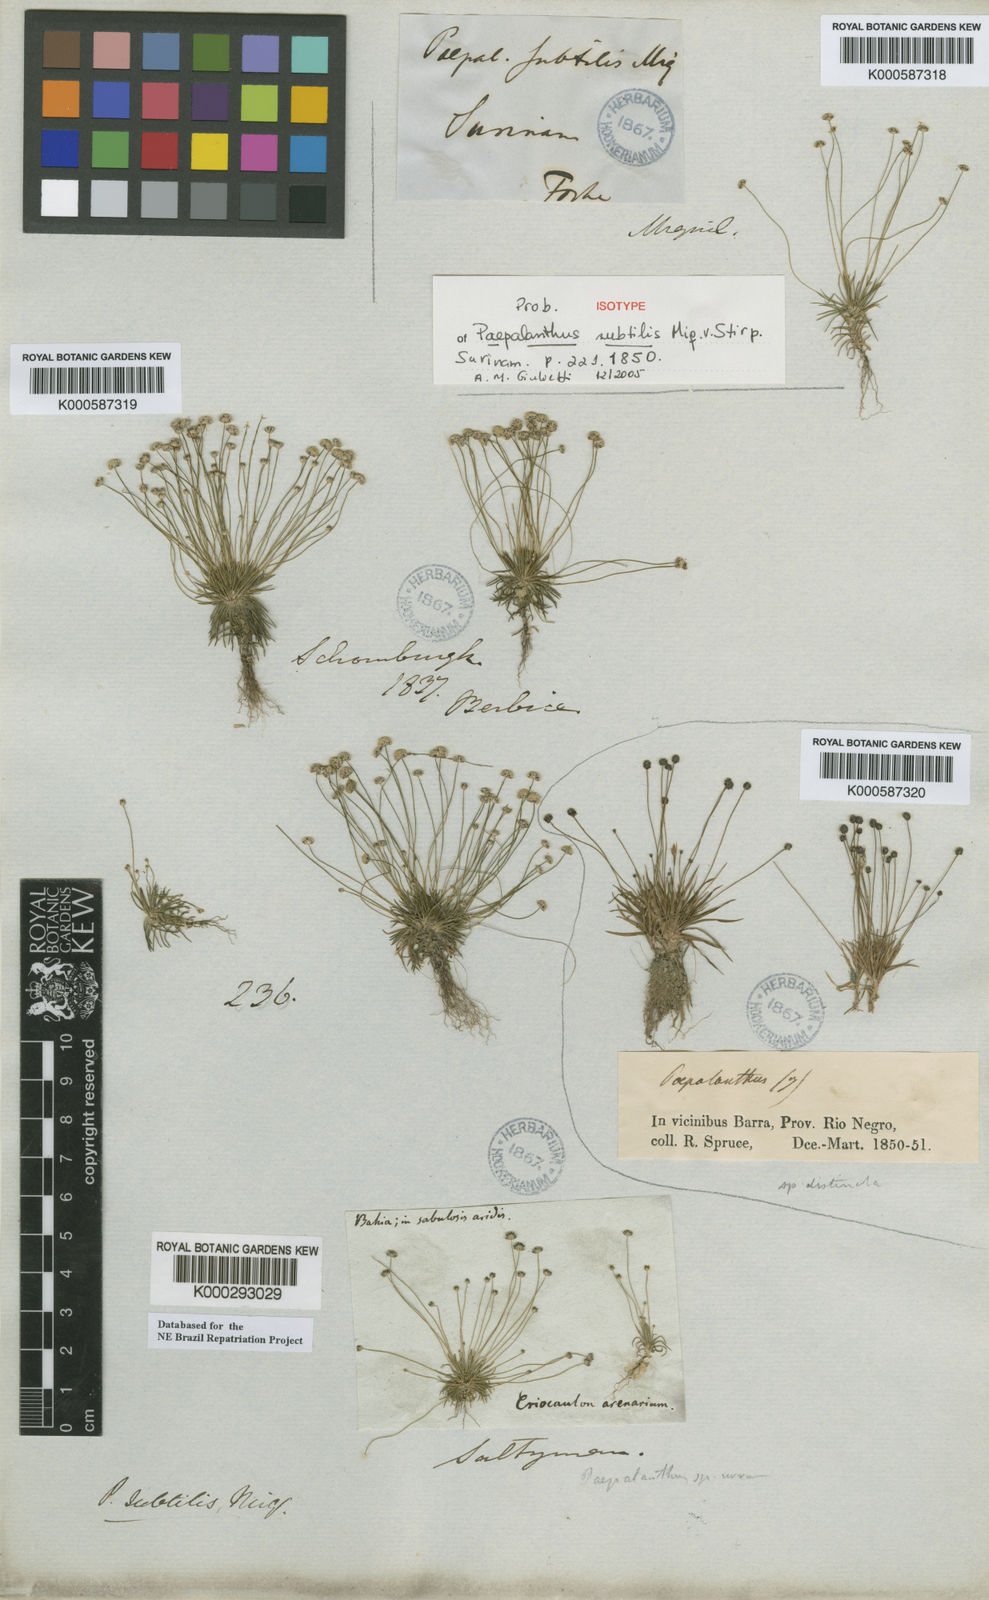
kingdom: Plantae
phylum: Tracheophyta
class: Liliopsida
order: Poales
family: Eriocaulaceae
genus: Paepalanthus
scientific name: Paepalanthus subtilis
